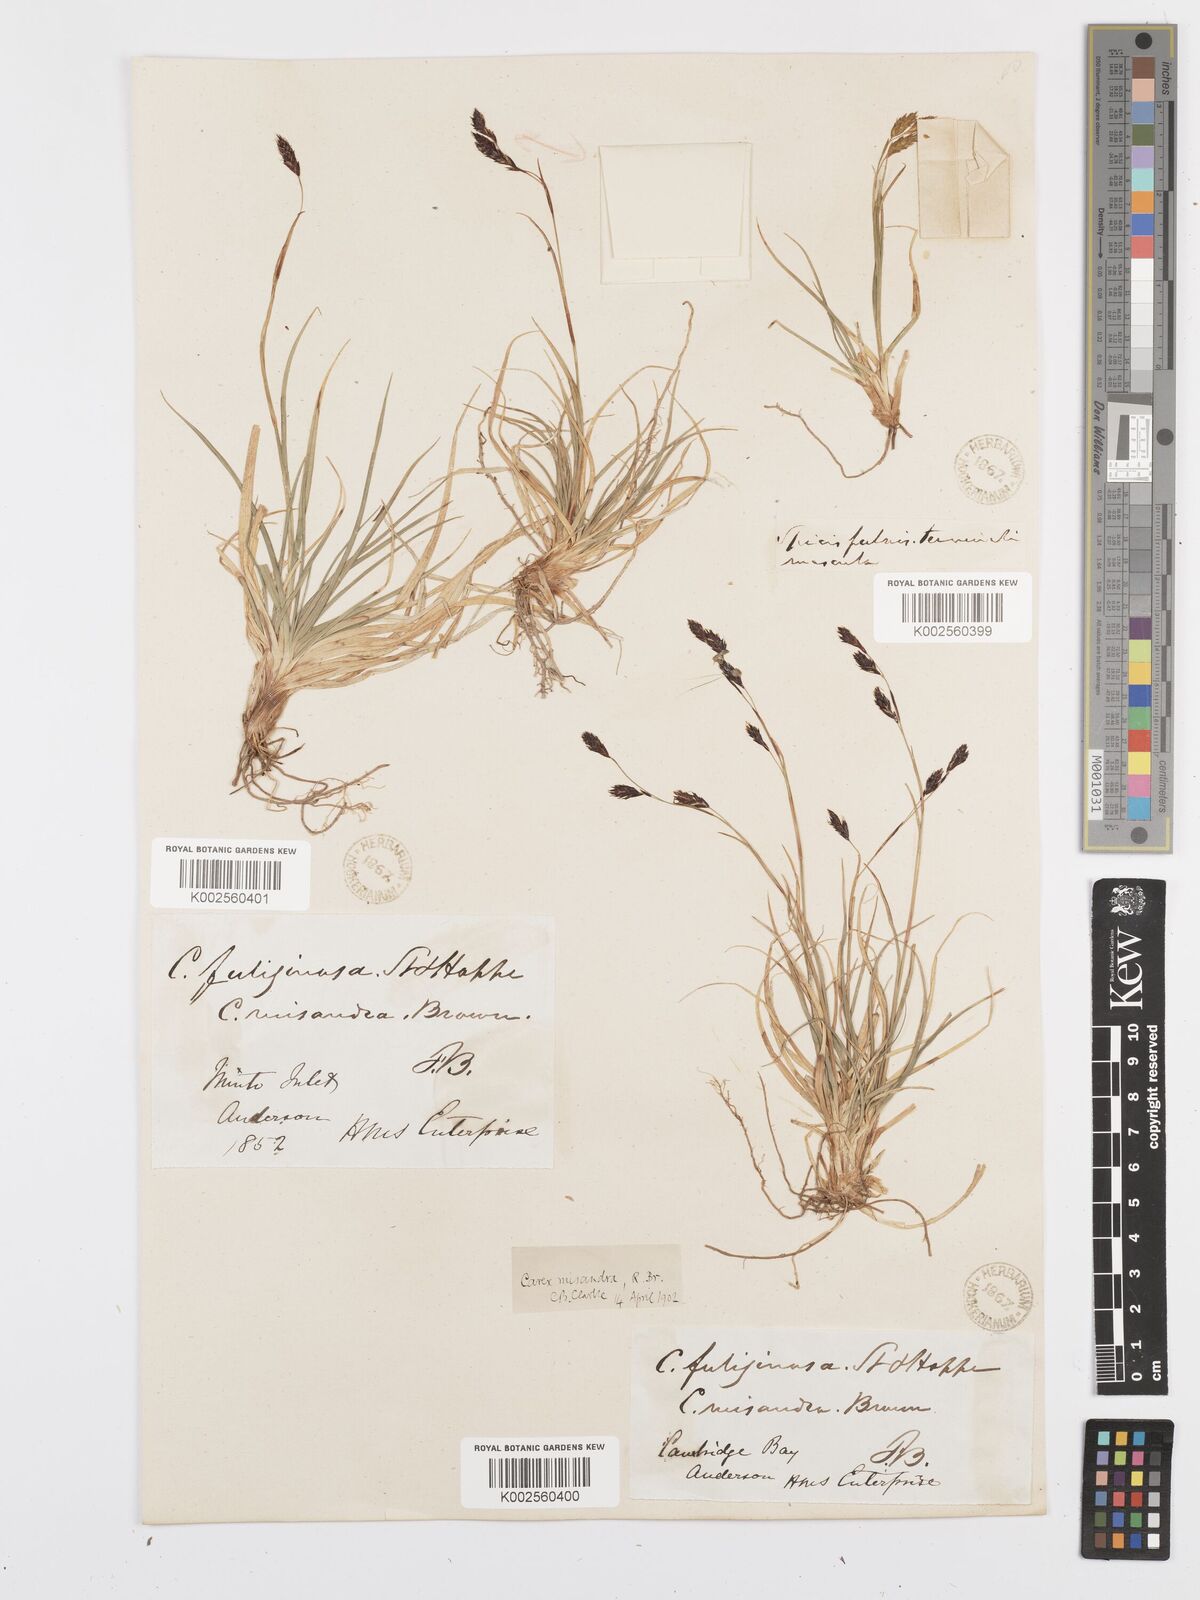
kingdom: Plantae
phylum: Tracheophyta
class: Liliopsida
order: Poales
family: Cyperaceae
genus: Carex
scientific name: Carex fuliginosa
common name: Few-flowered sedge
